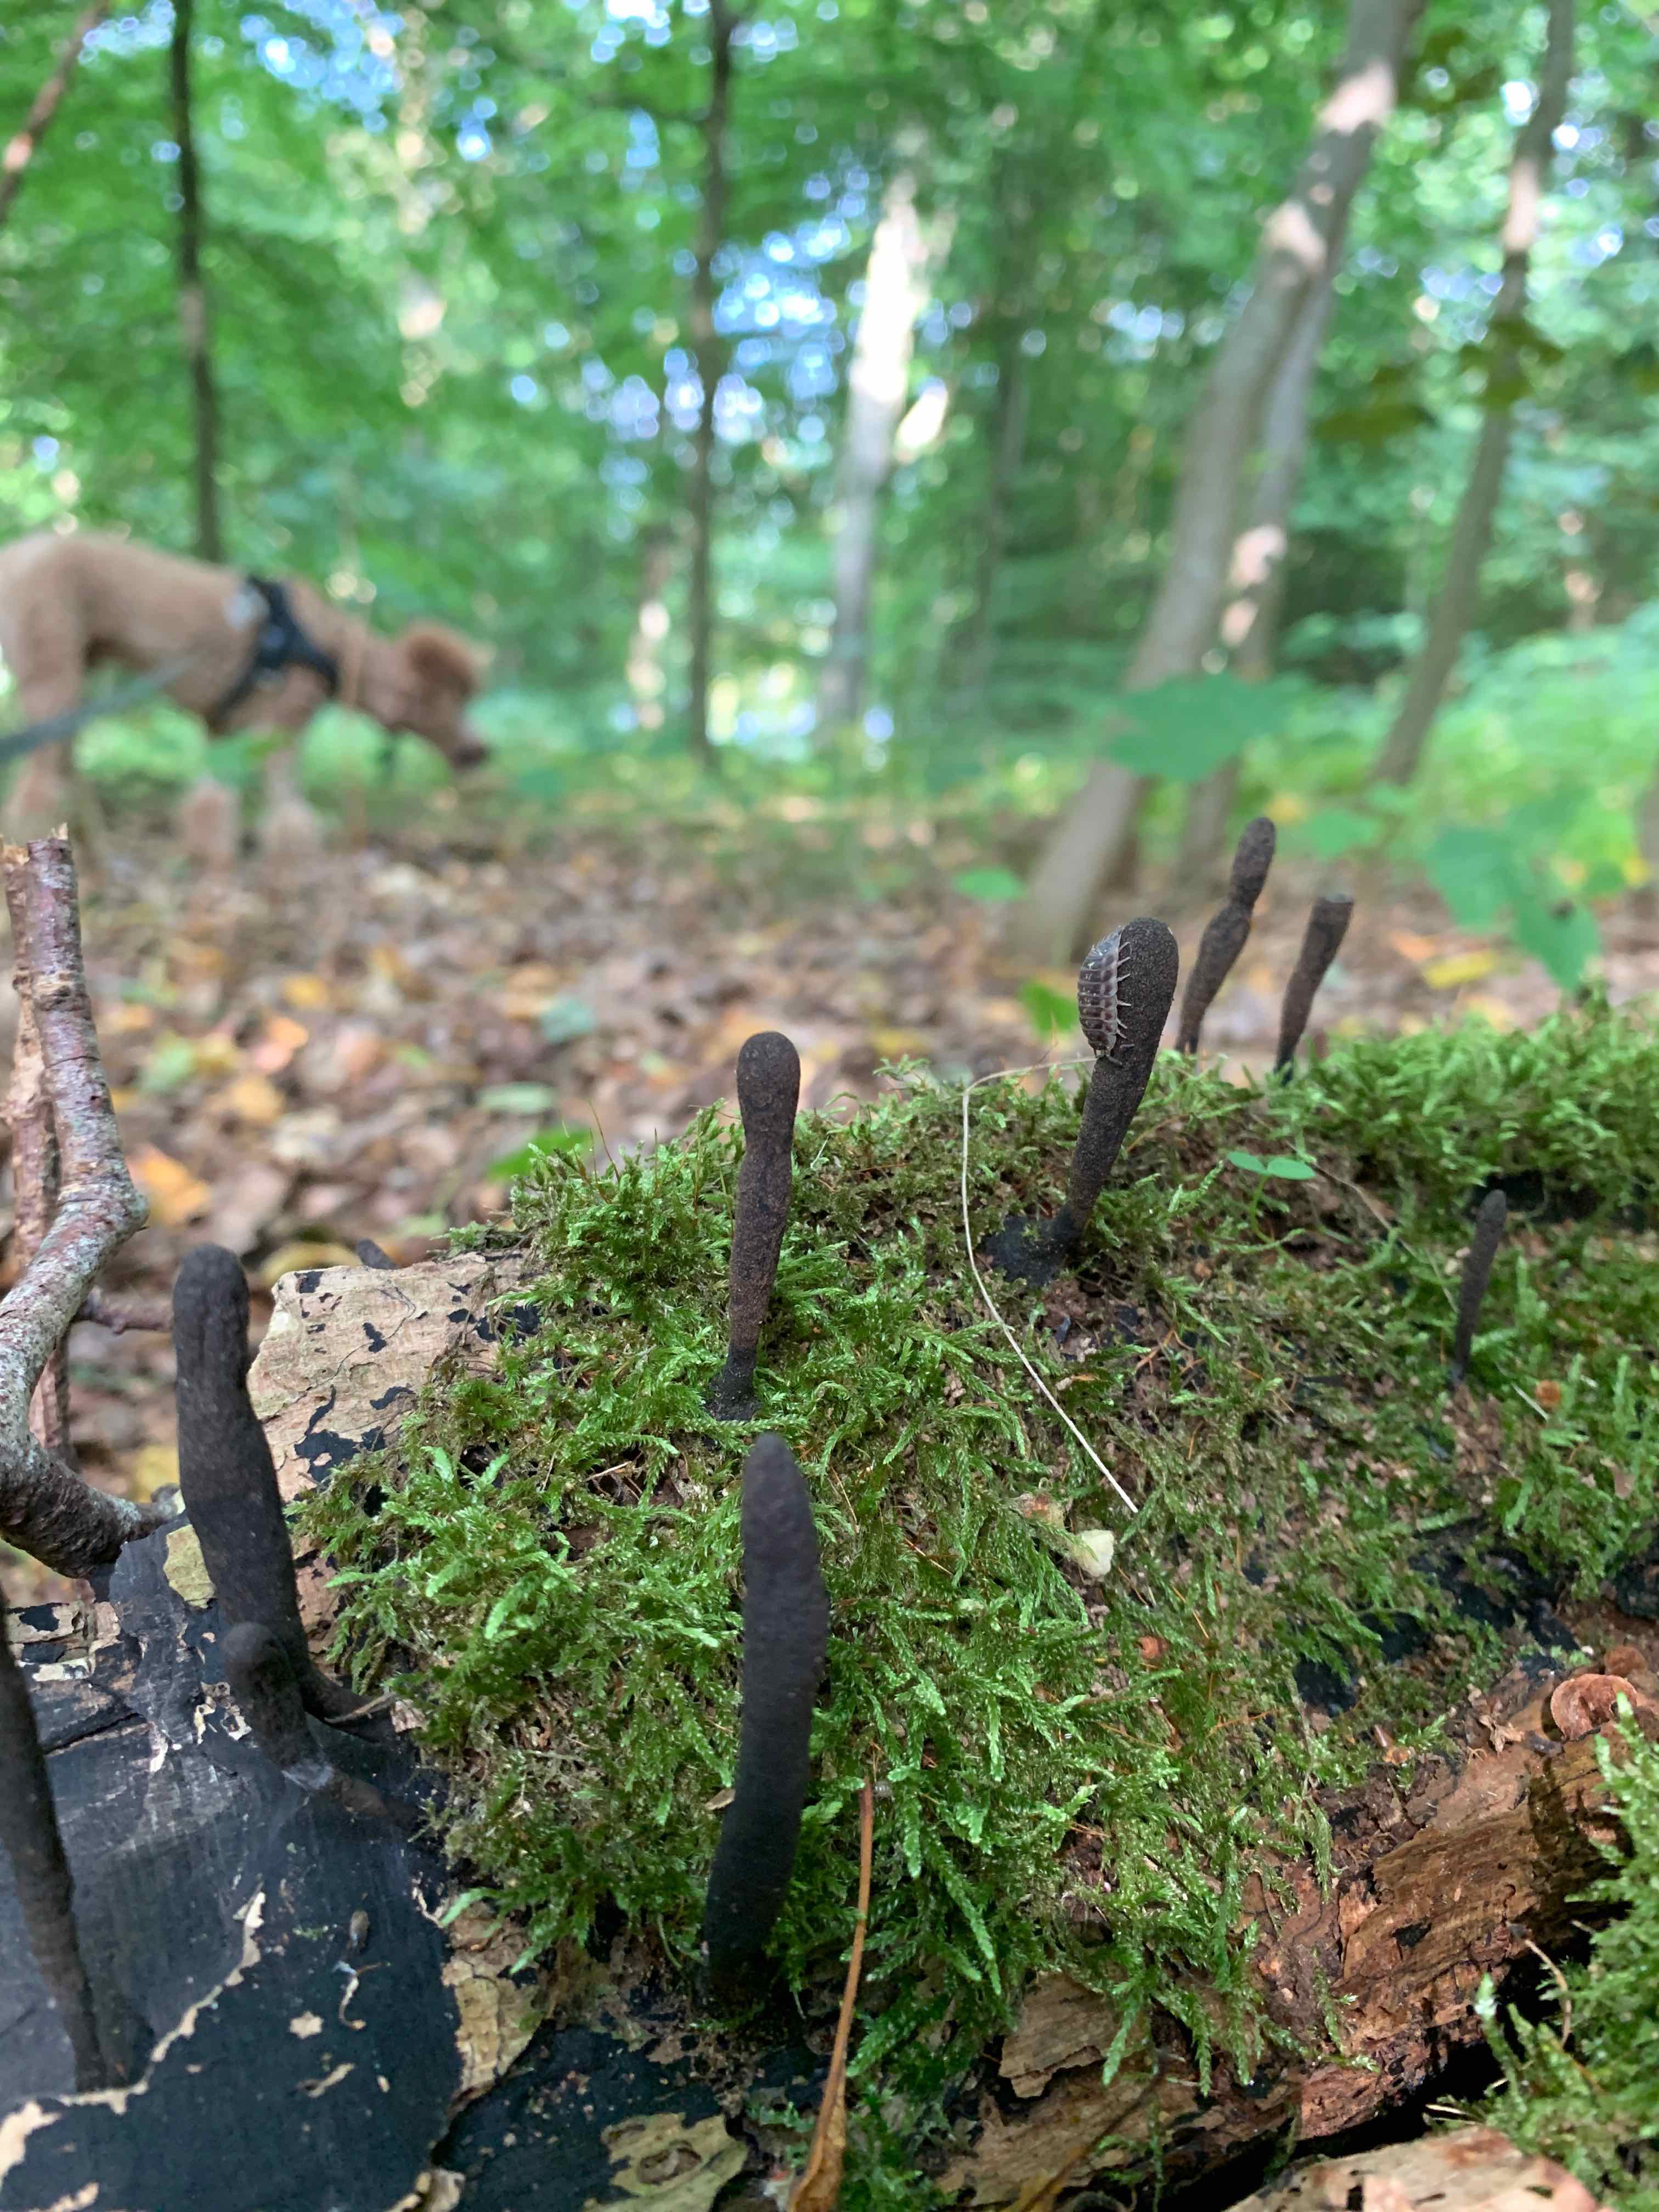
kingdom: Fungi
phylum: Ascomycota
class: Sordariomycetes
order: Xylariales
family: Xylariaceae
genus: Xylaria
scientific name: Xylaria longipes
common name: slank stødsvamp
